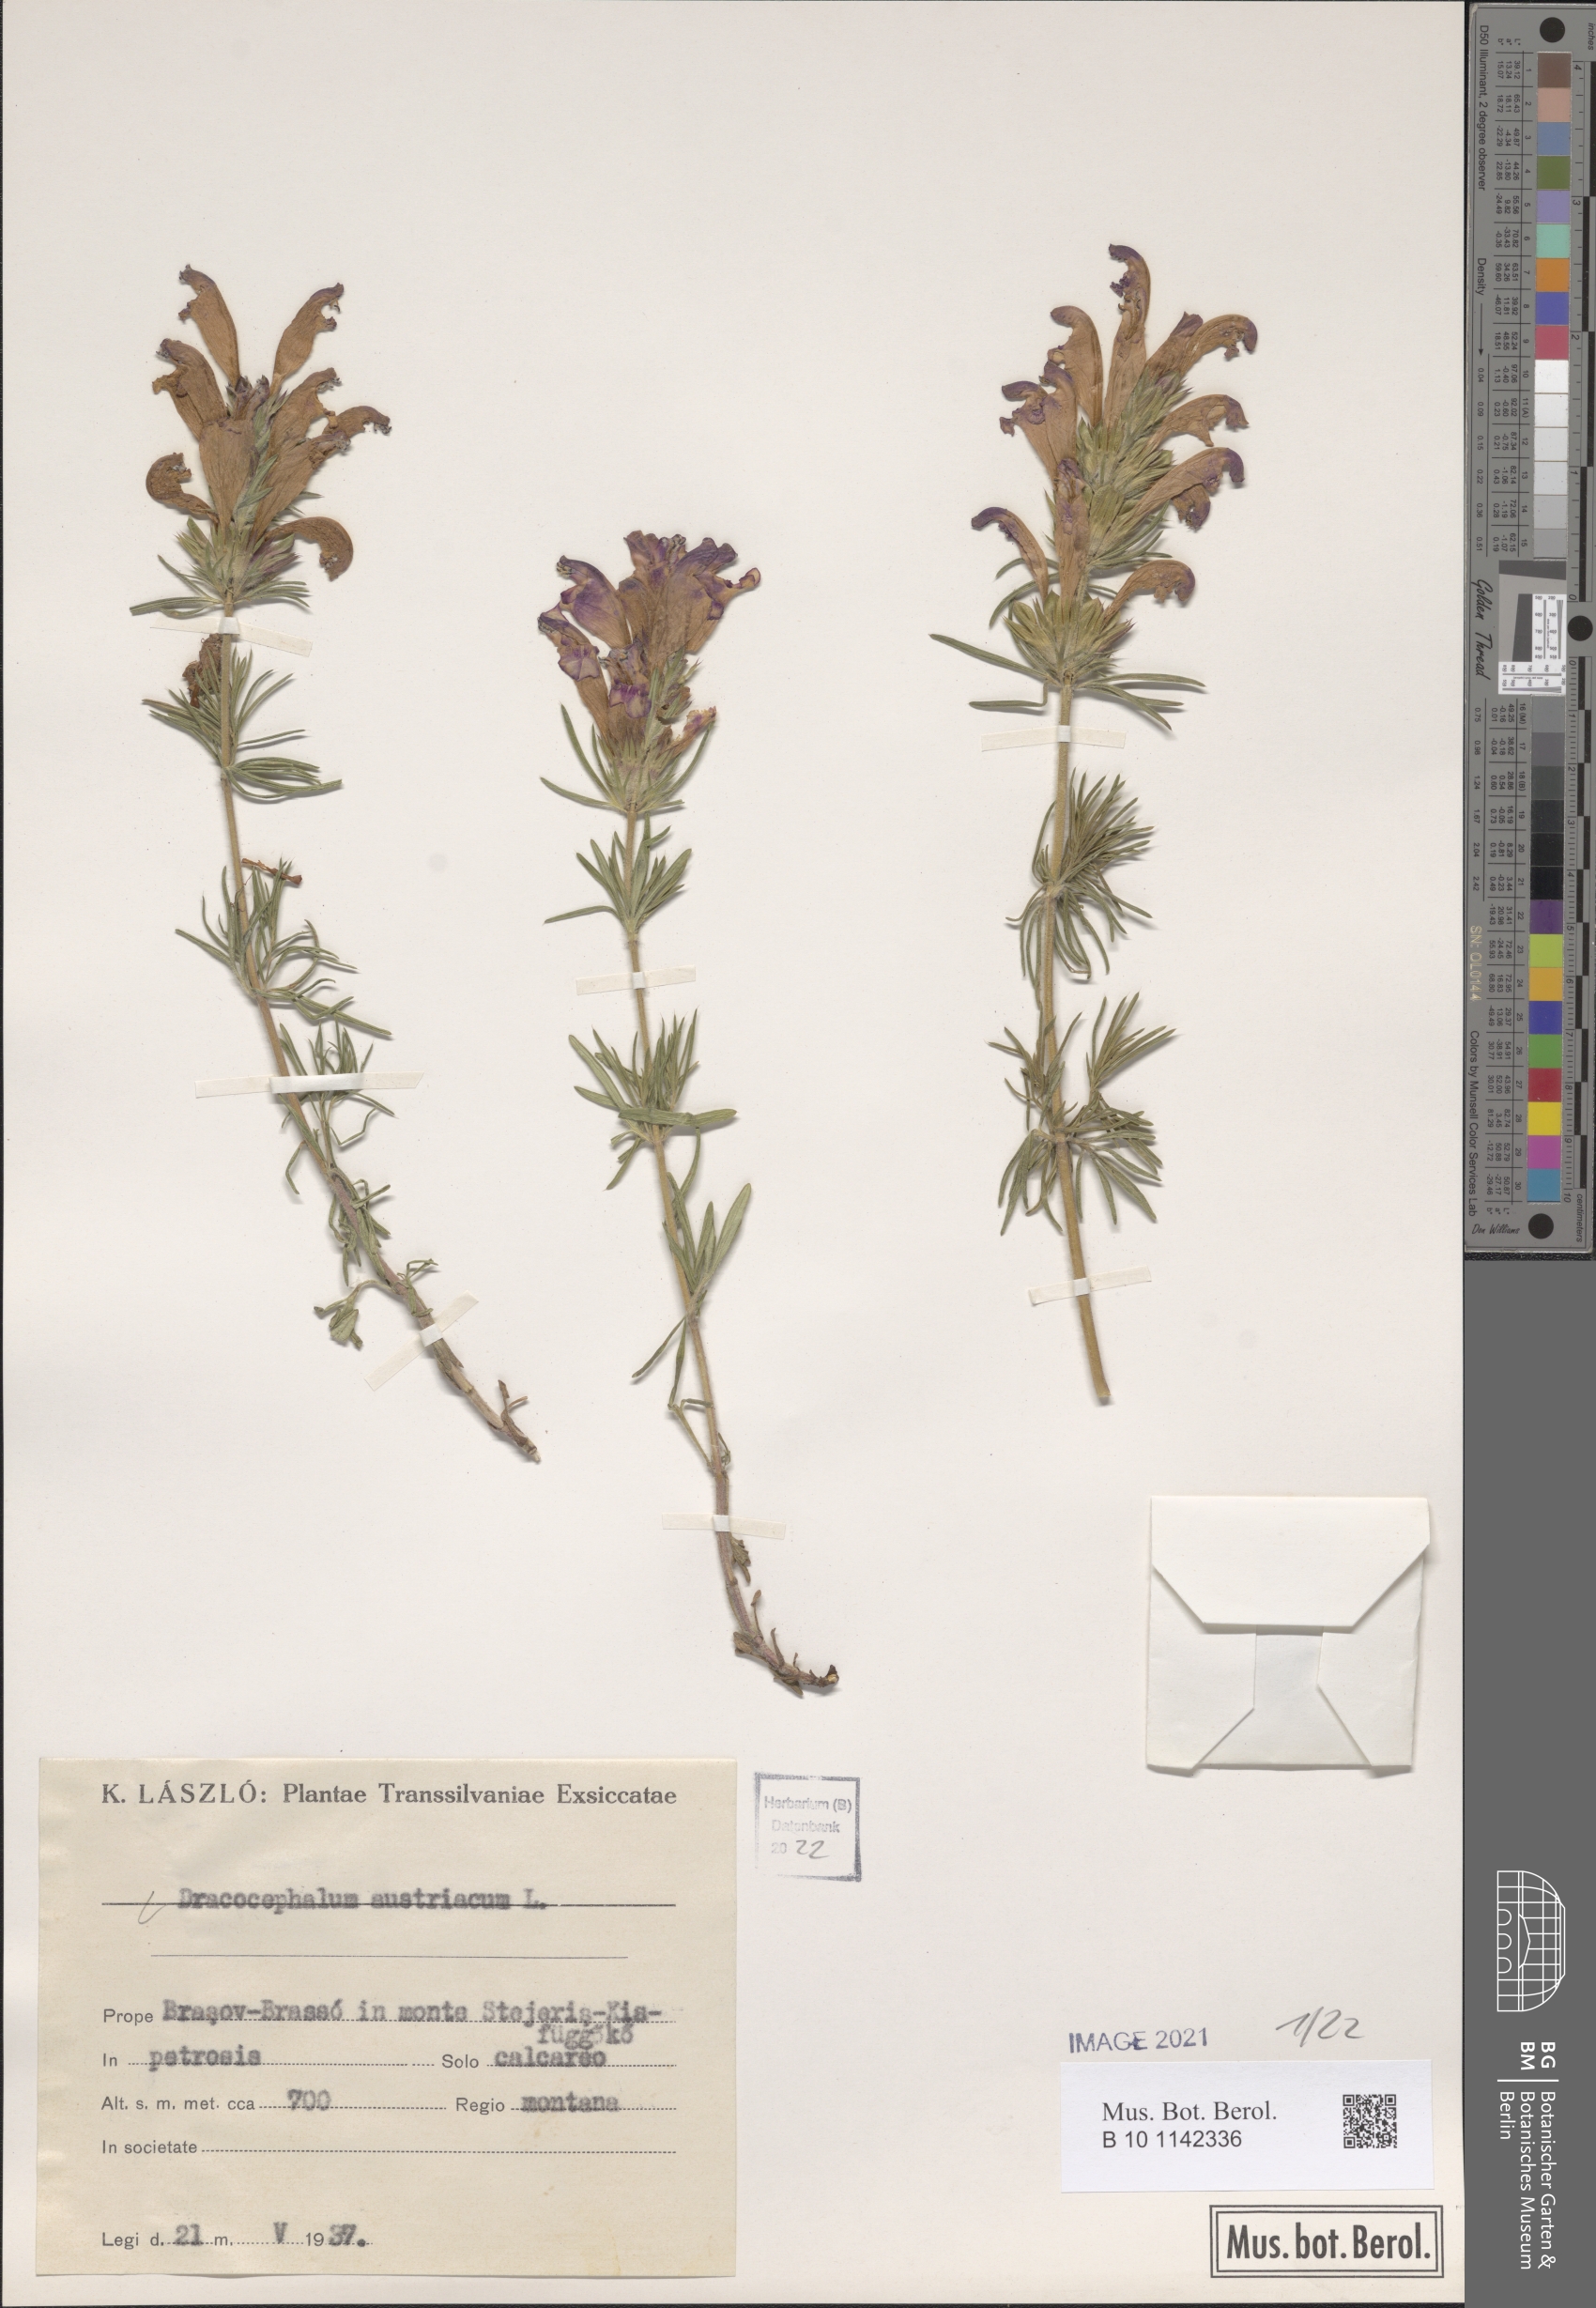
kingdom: Plantae
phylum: Tracheophyta
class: Magnoliopsida
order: Lamiales
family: Lamiaceae
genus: Dracocephalum
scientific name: Dracocephalum austriacum
